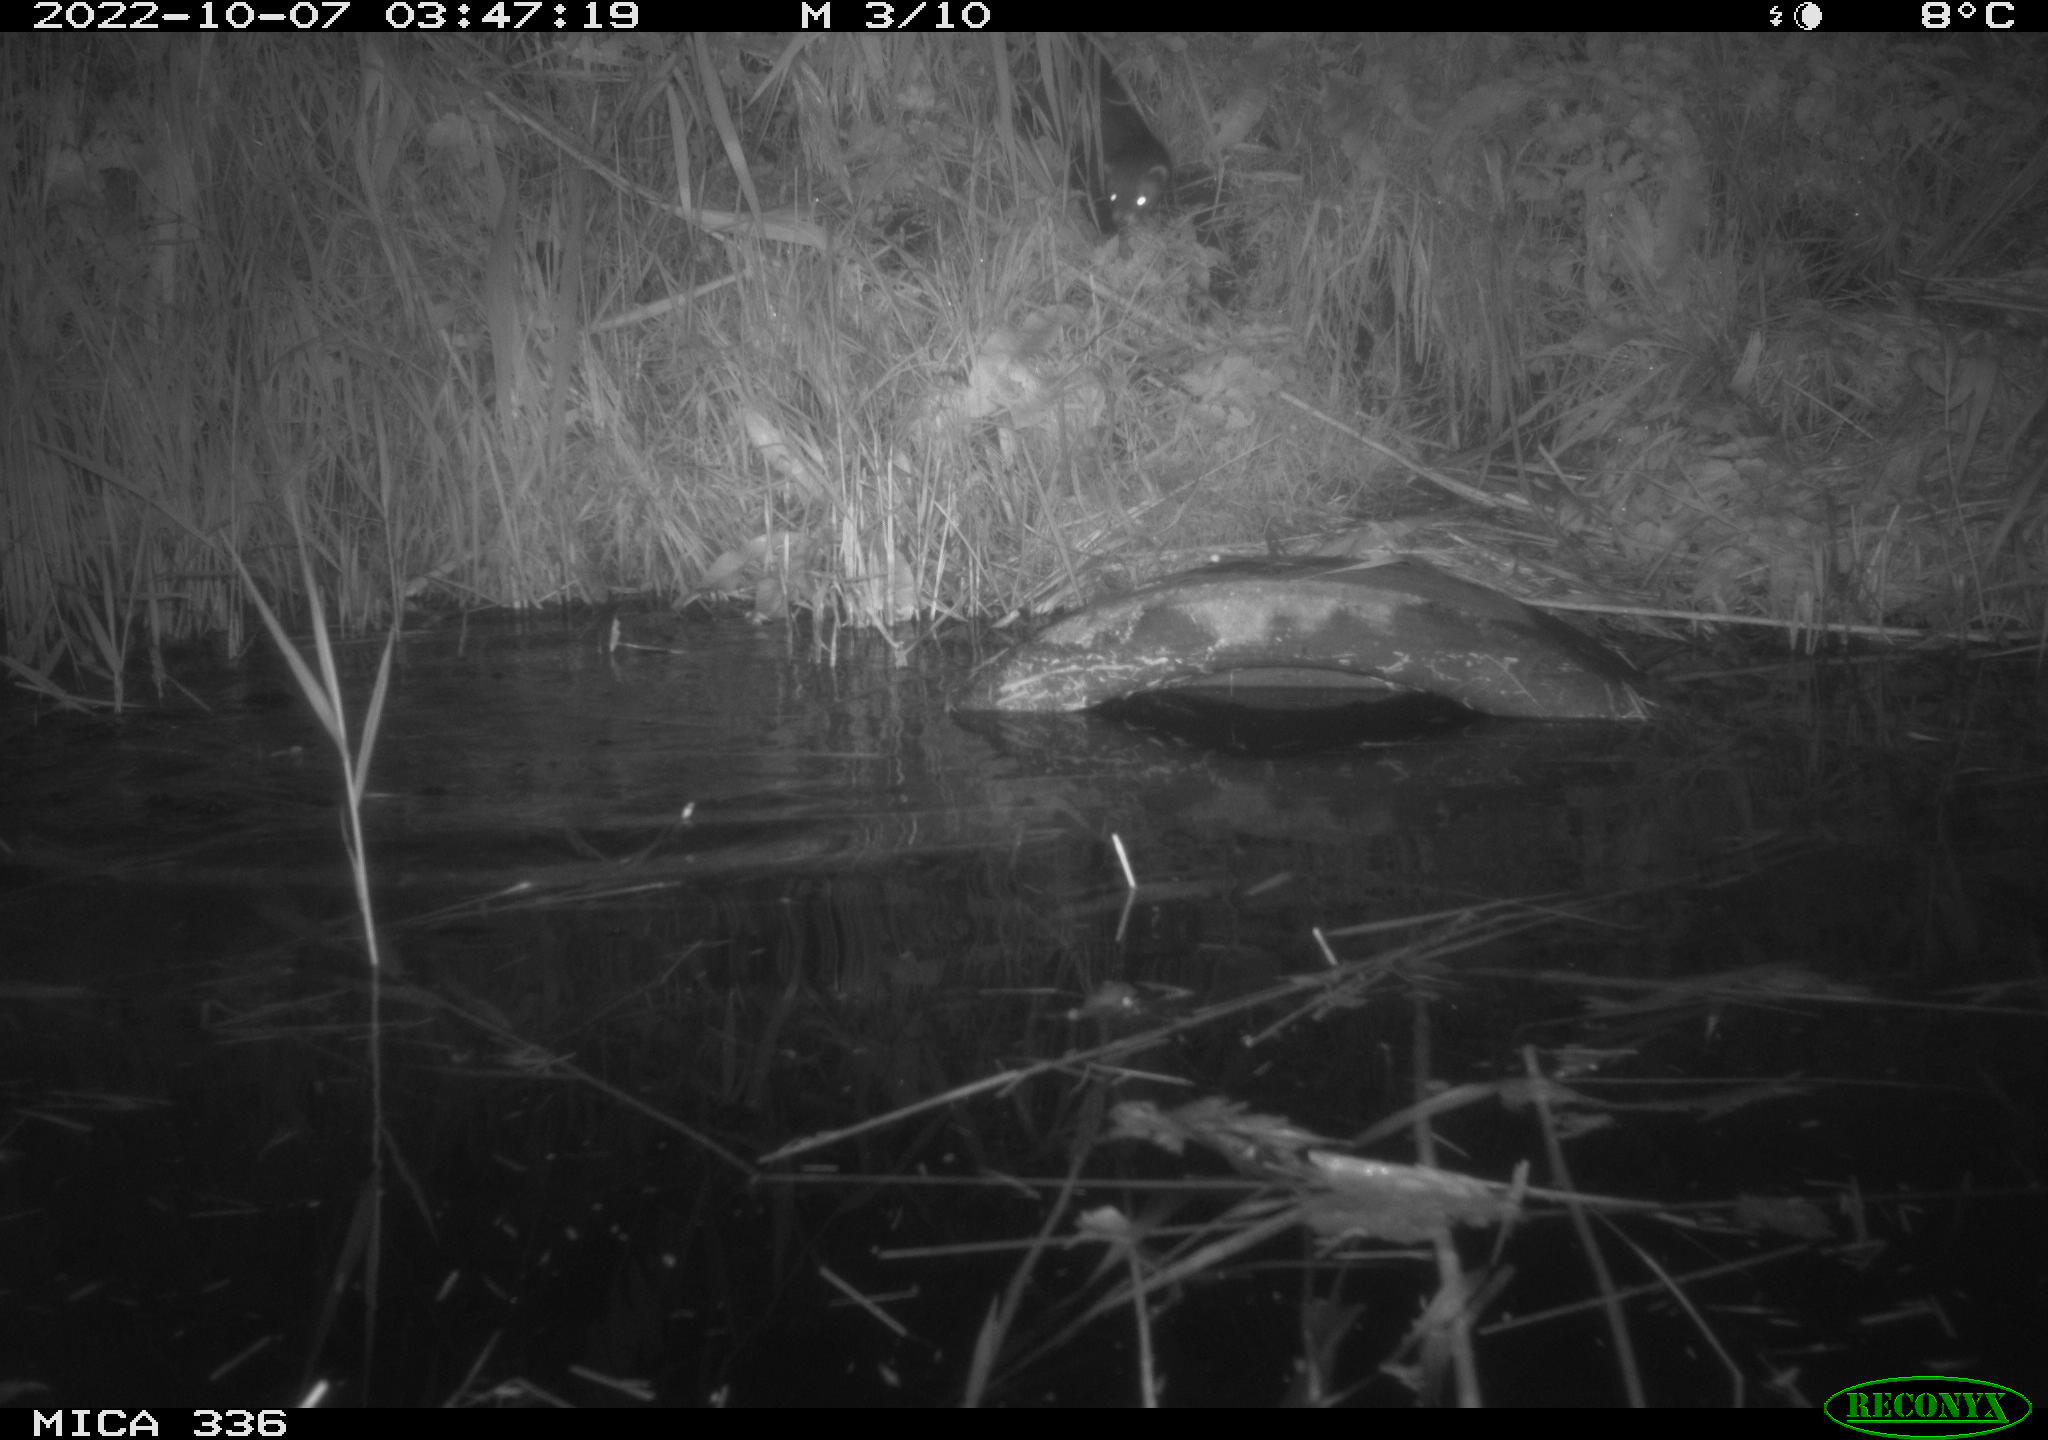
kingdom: Animalia
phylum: Chordata
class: Mammalia
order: Carnivora
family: Mustelidae
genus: Mustela
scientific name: Mustela putorius
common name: European polecat
